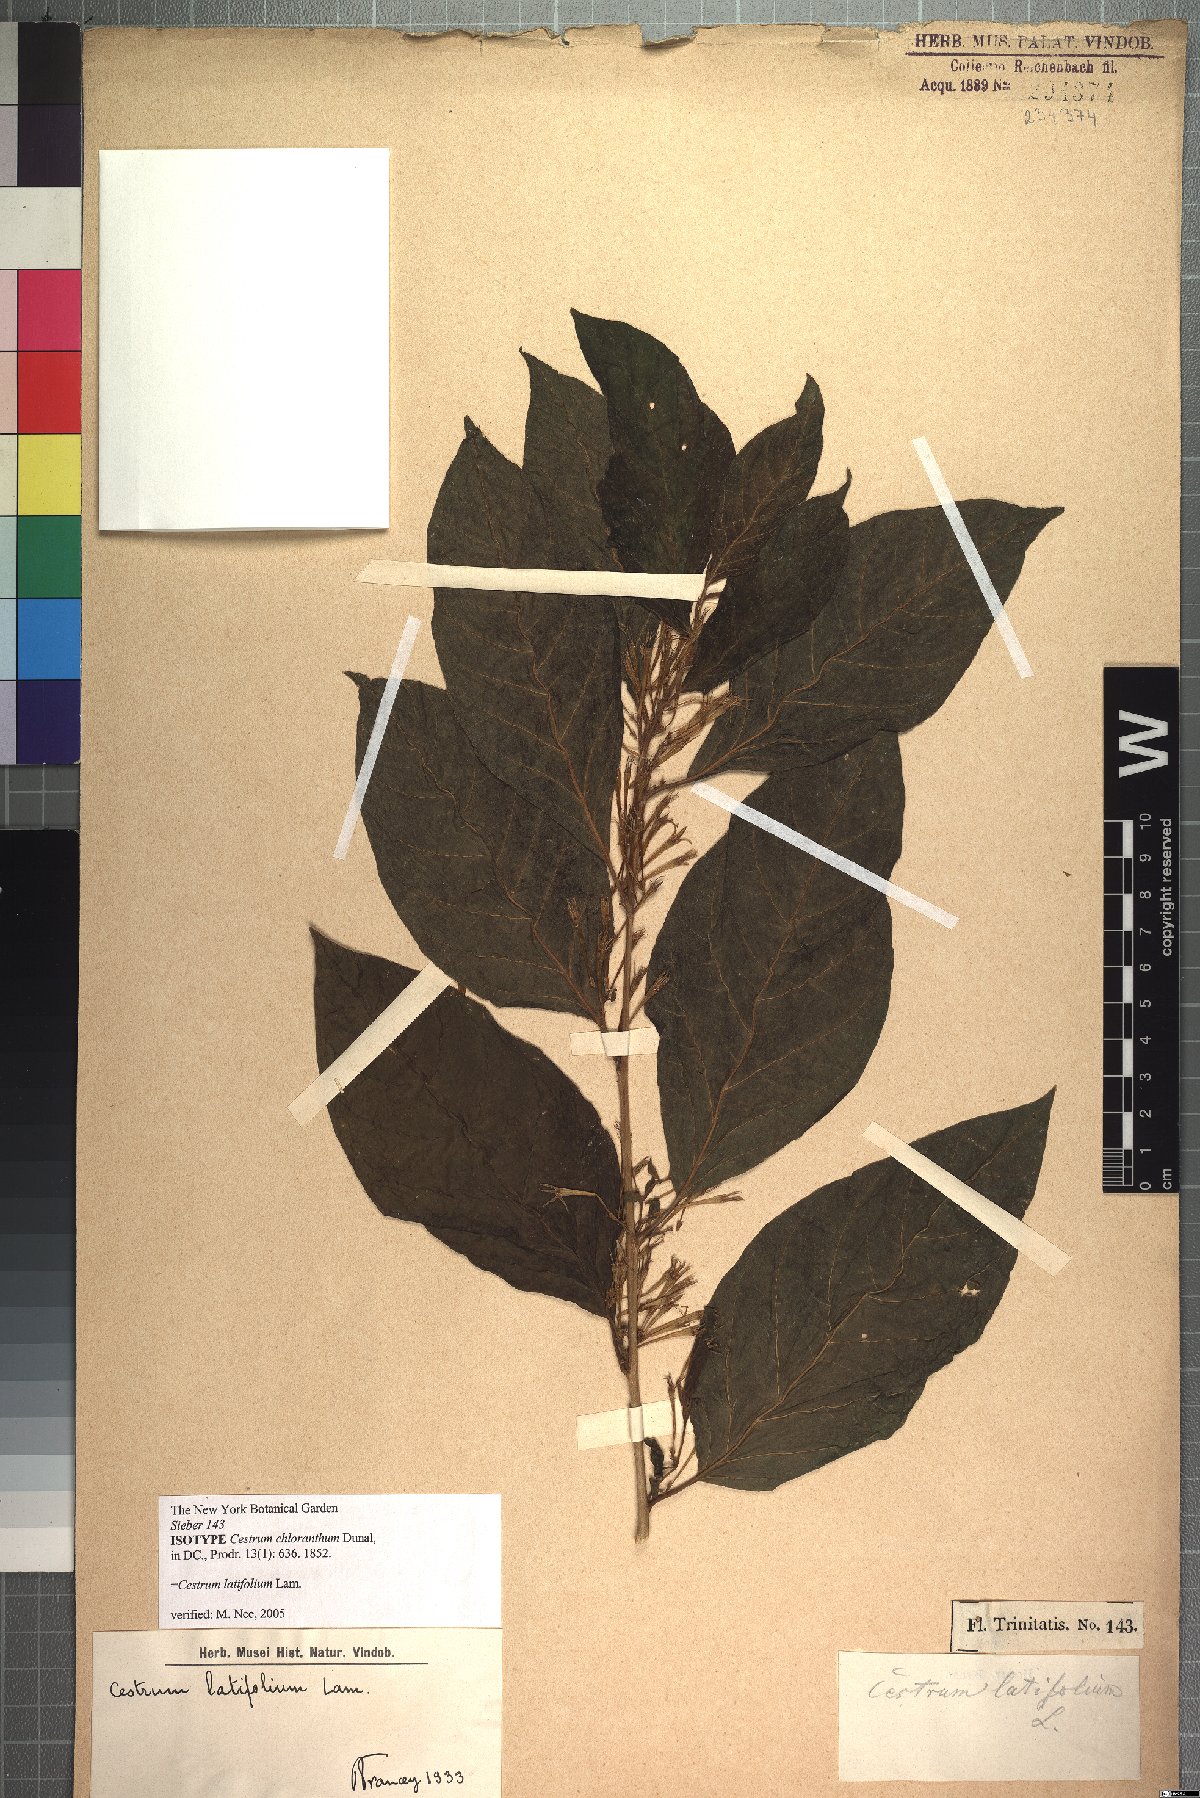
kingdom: Plantae
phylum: Tracheophyta
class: Magnoliopsida
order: Solanales
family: Solanaceae
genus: Cestrum
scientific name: Cestrum latifolium
